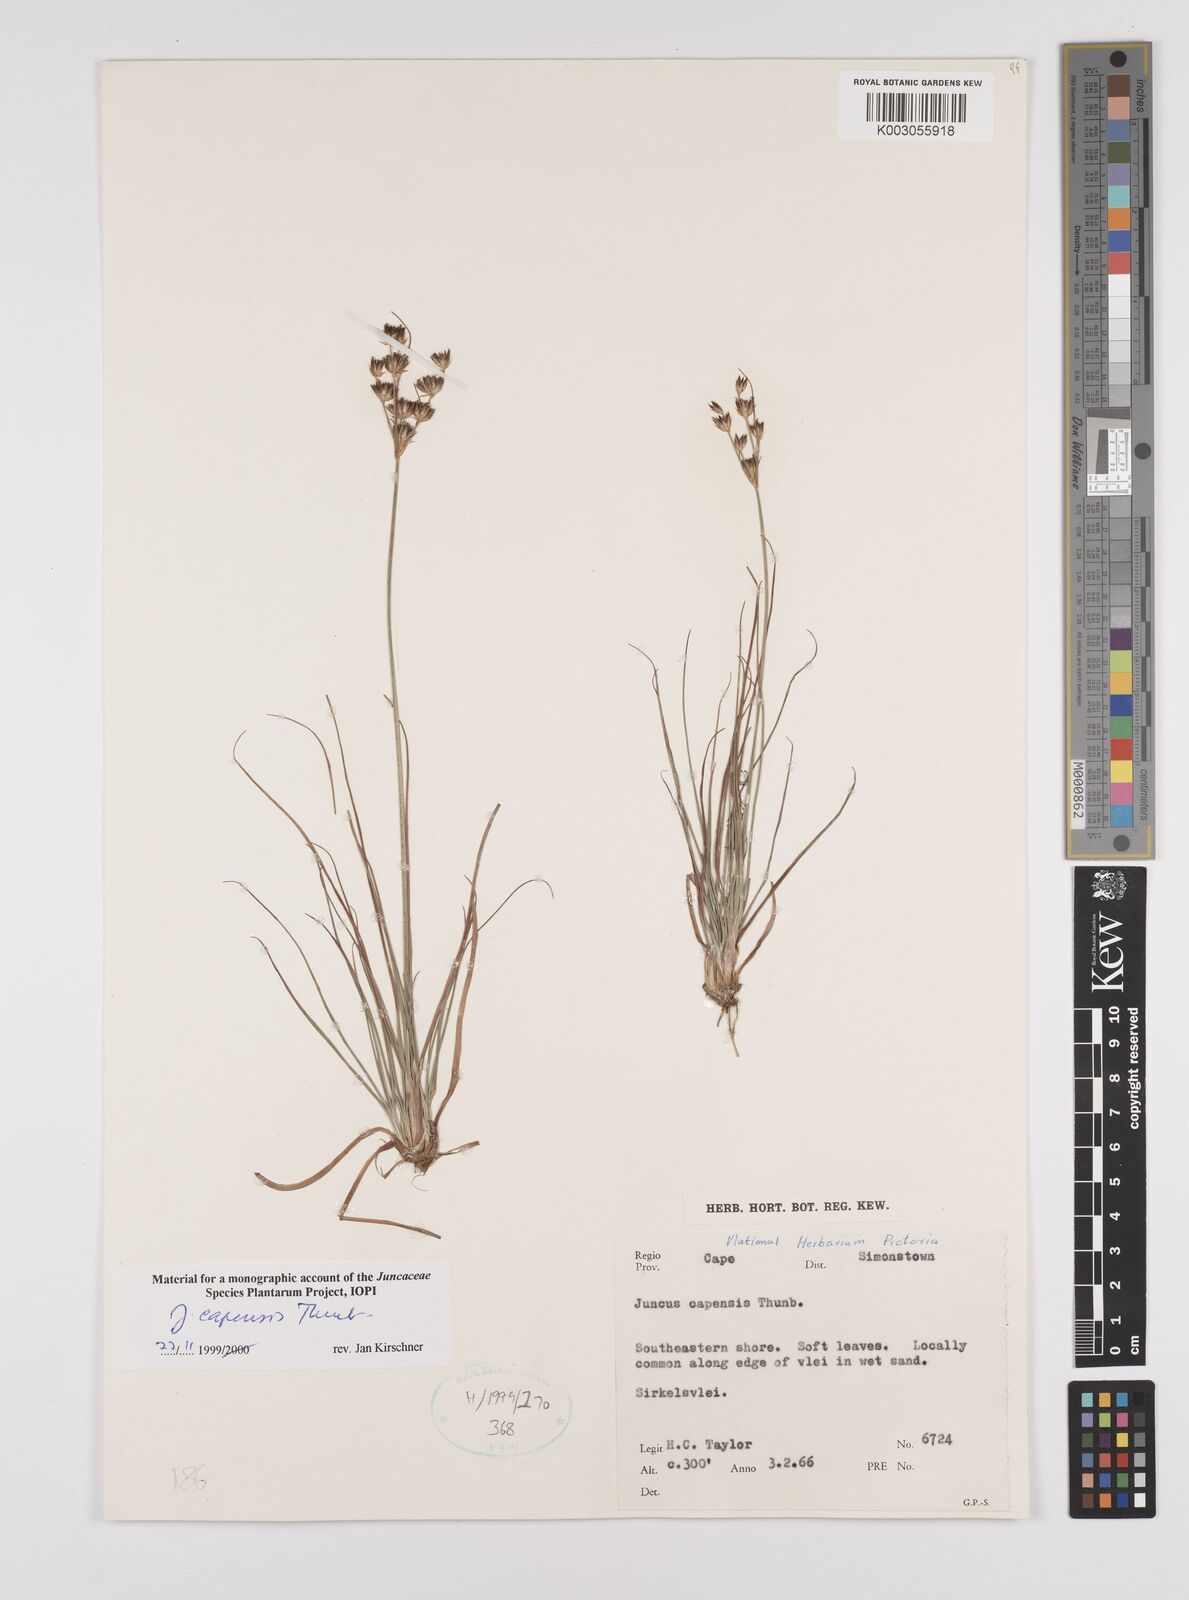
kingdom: Plantae
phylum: Tracheophyta
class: Liliopsida
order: Poales
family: Juncaceae
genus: Juncus
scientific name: Juncus capensis
